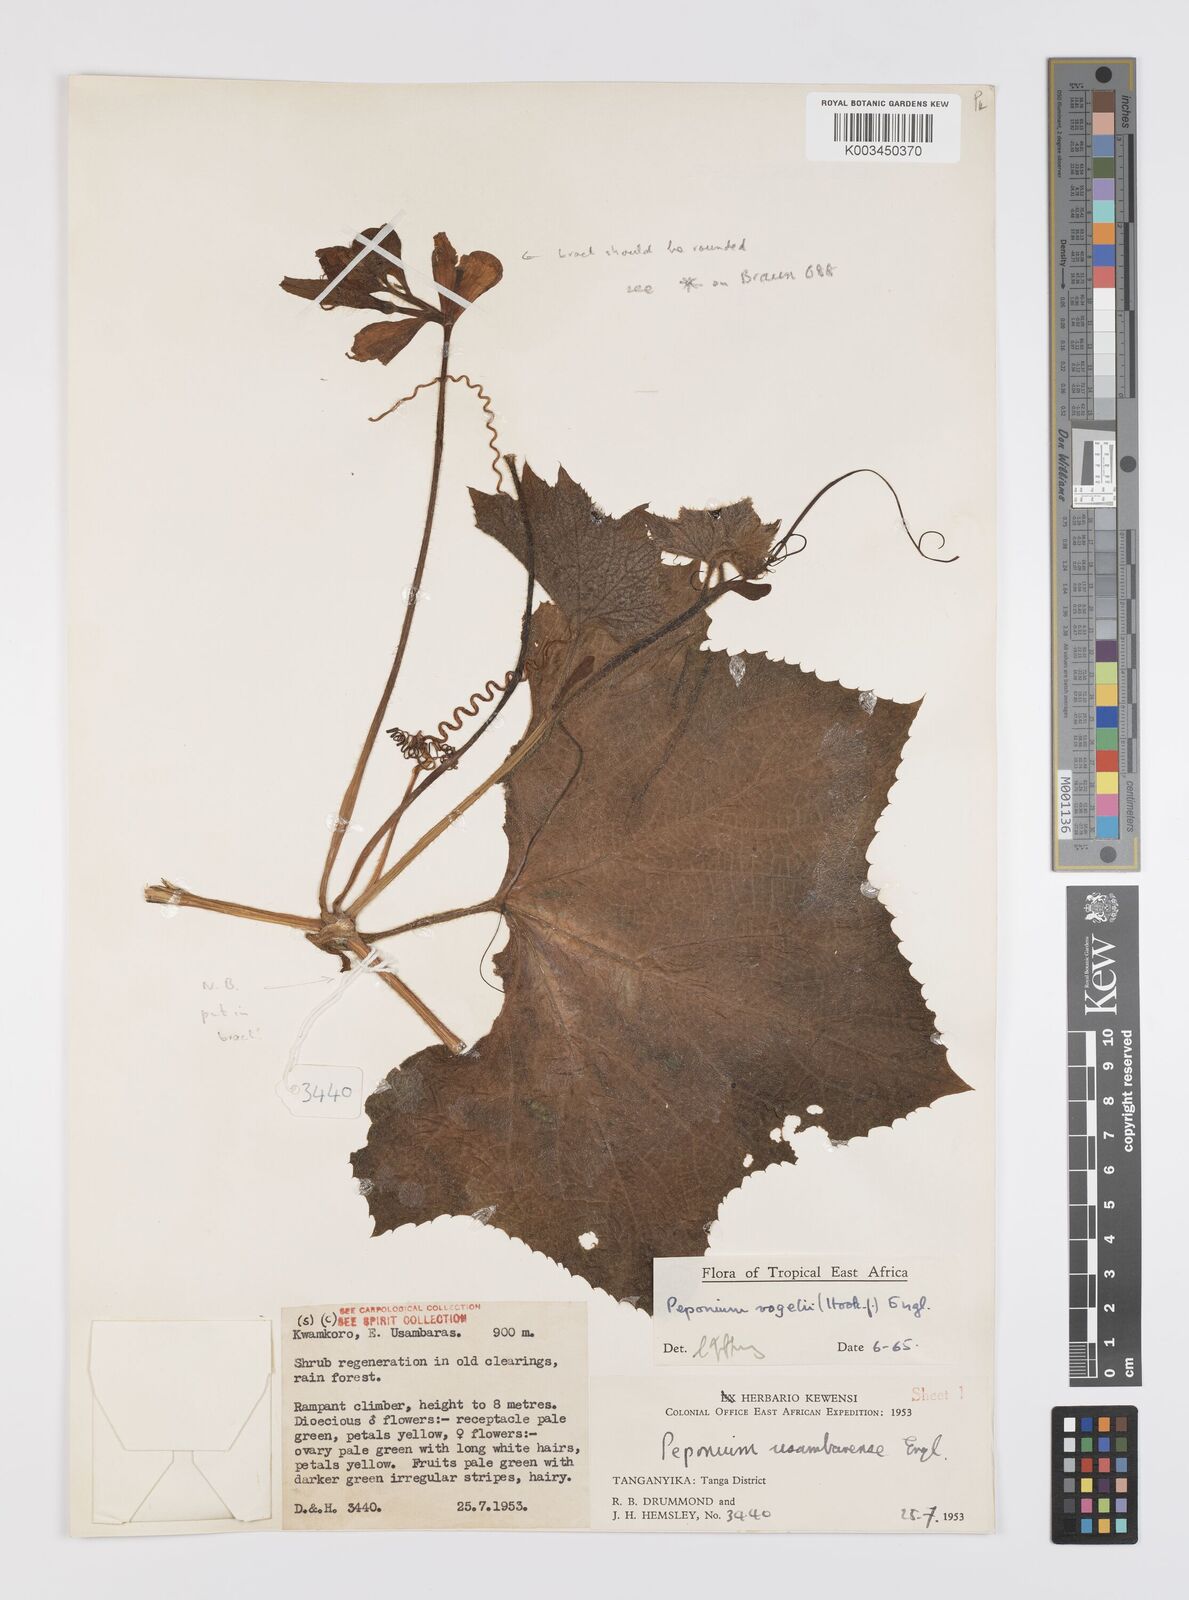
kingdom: Plantae
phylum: Tracheophyta
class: Magnoliopsida
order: Cucurbitales
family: Cucurbitaceae
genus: Peponium
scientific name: Peponium vogelii
